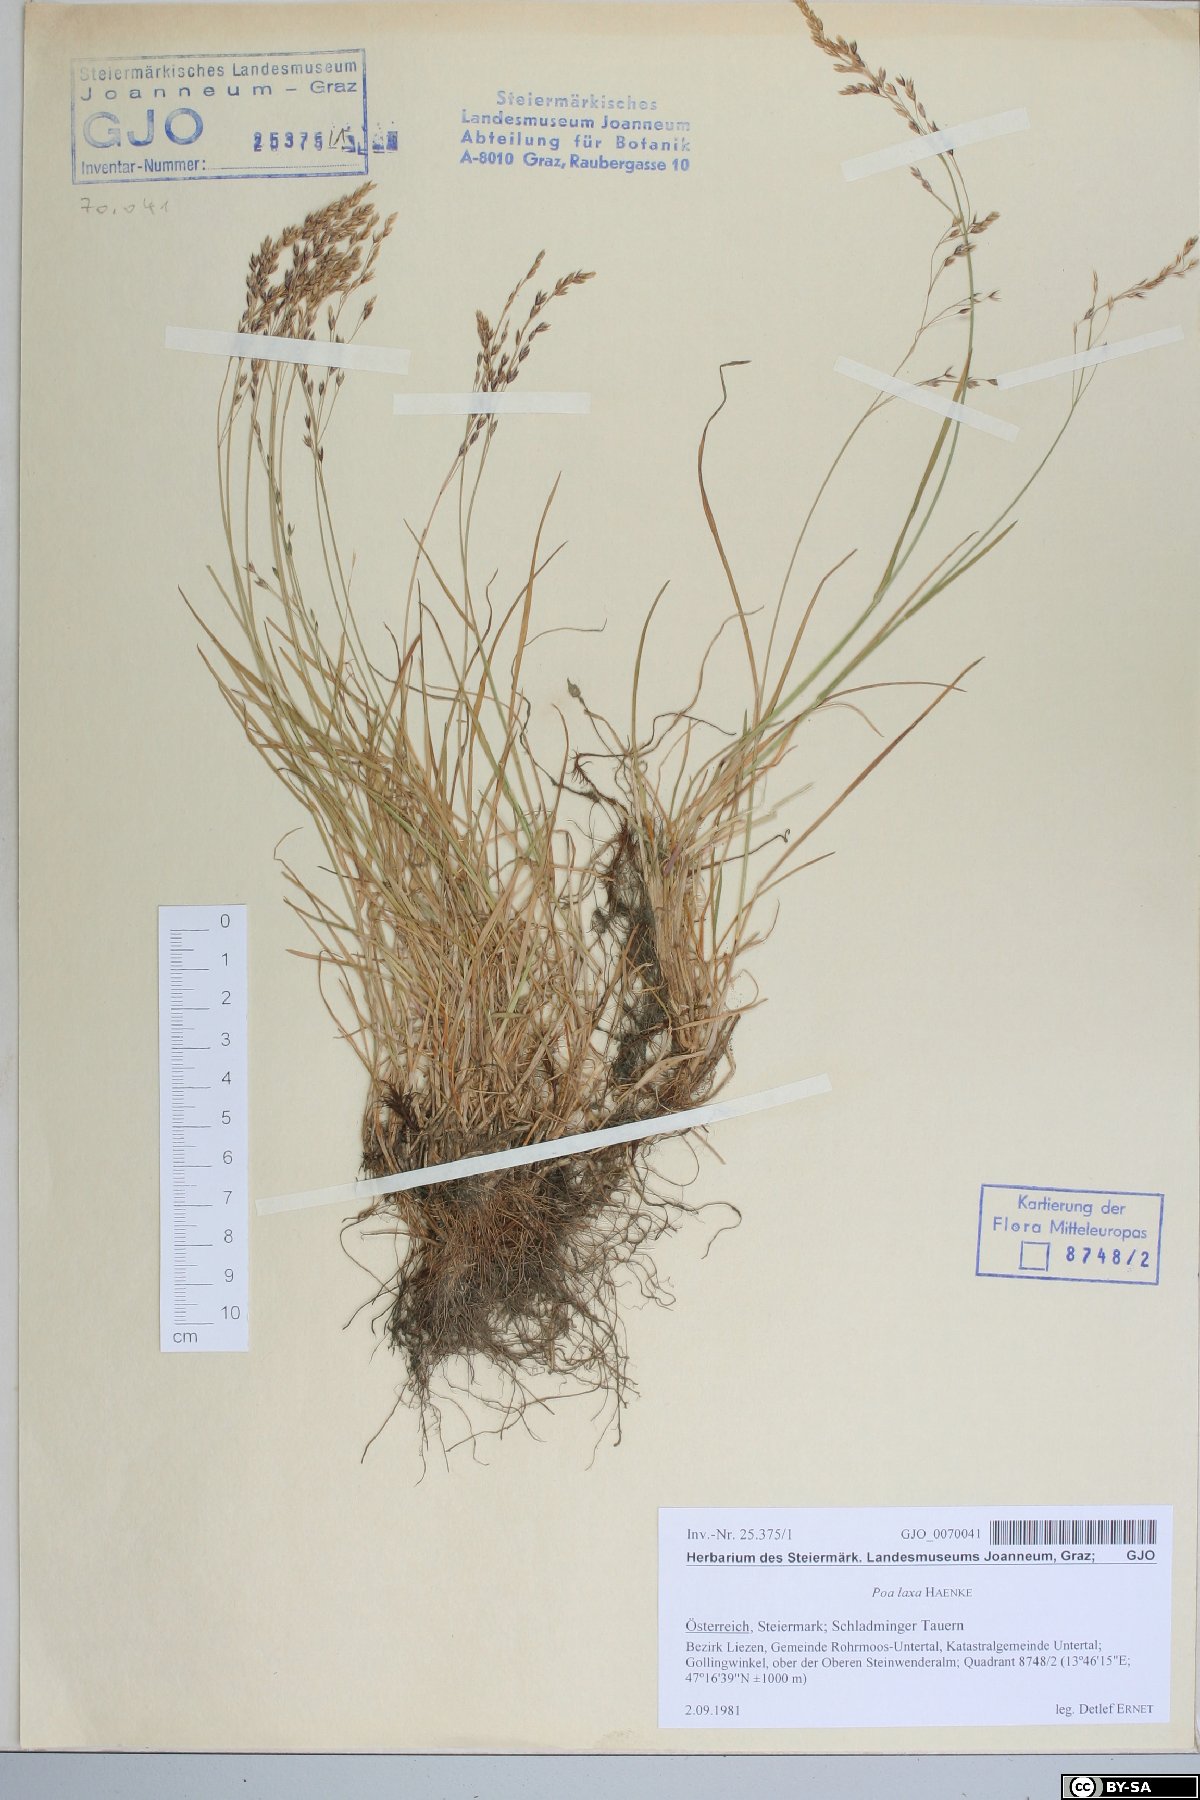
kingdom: Plantae
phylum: Tracheophyta
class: Liliopsida
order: Poales
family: Poaceae
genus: Poa
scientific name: Poa laxa
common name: Lax bluegrass
